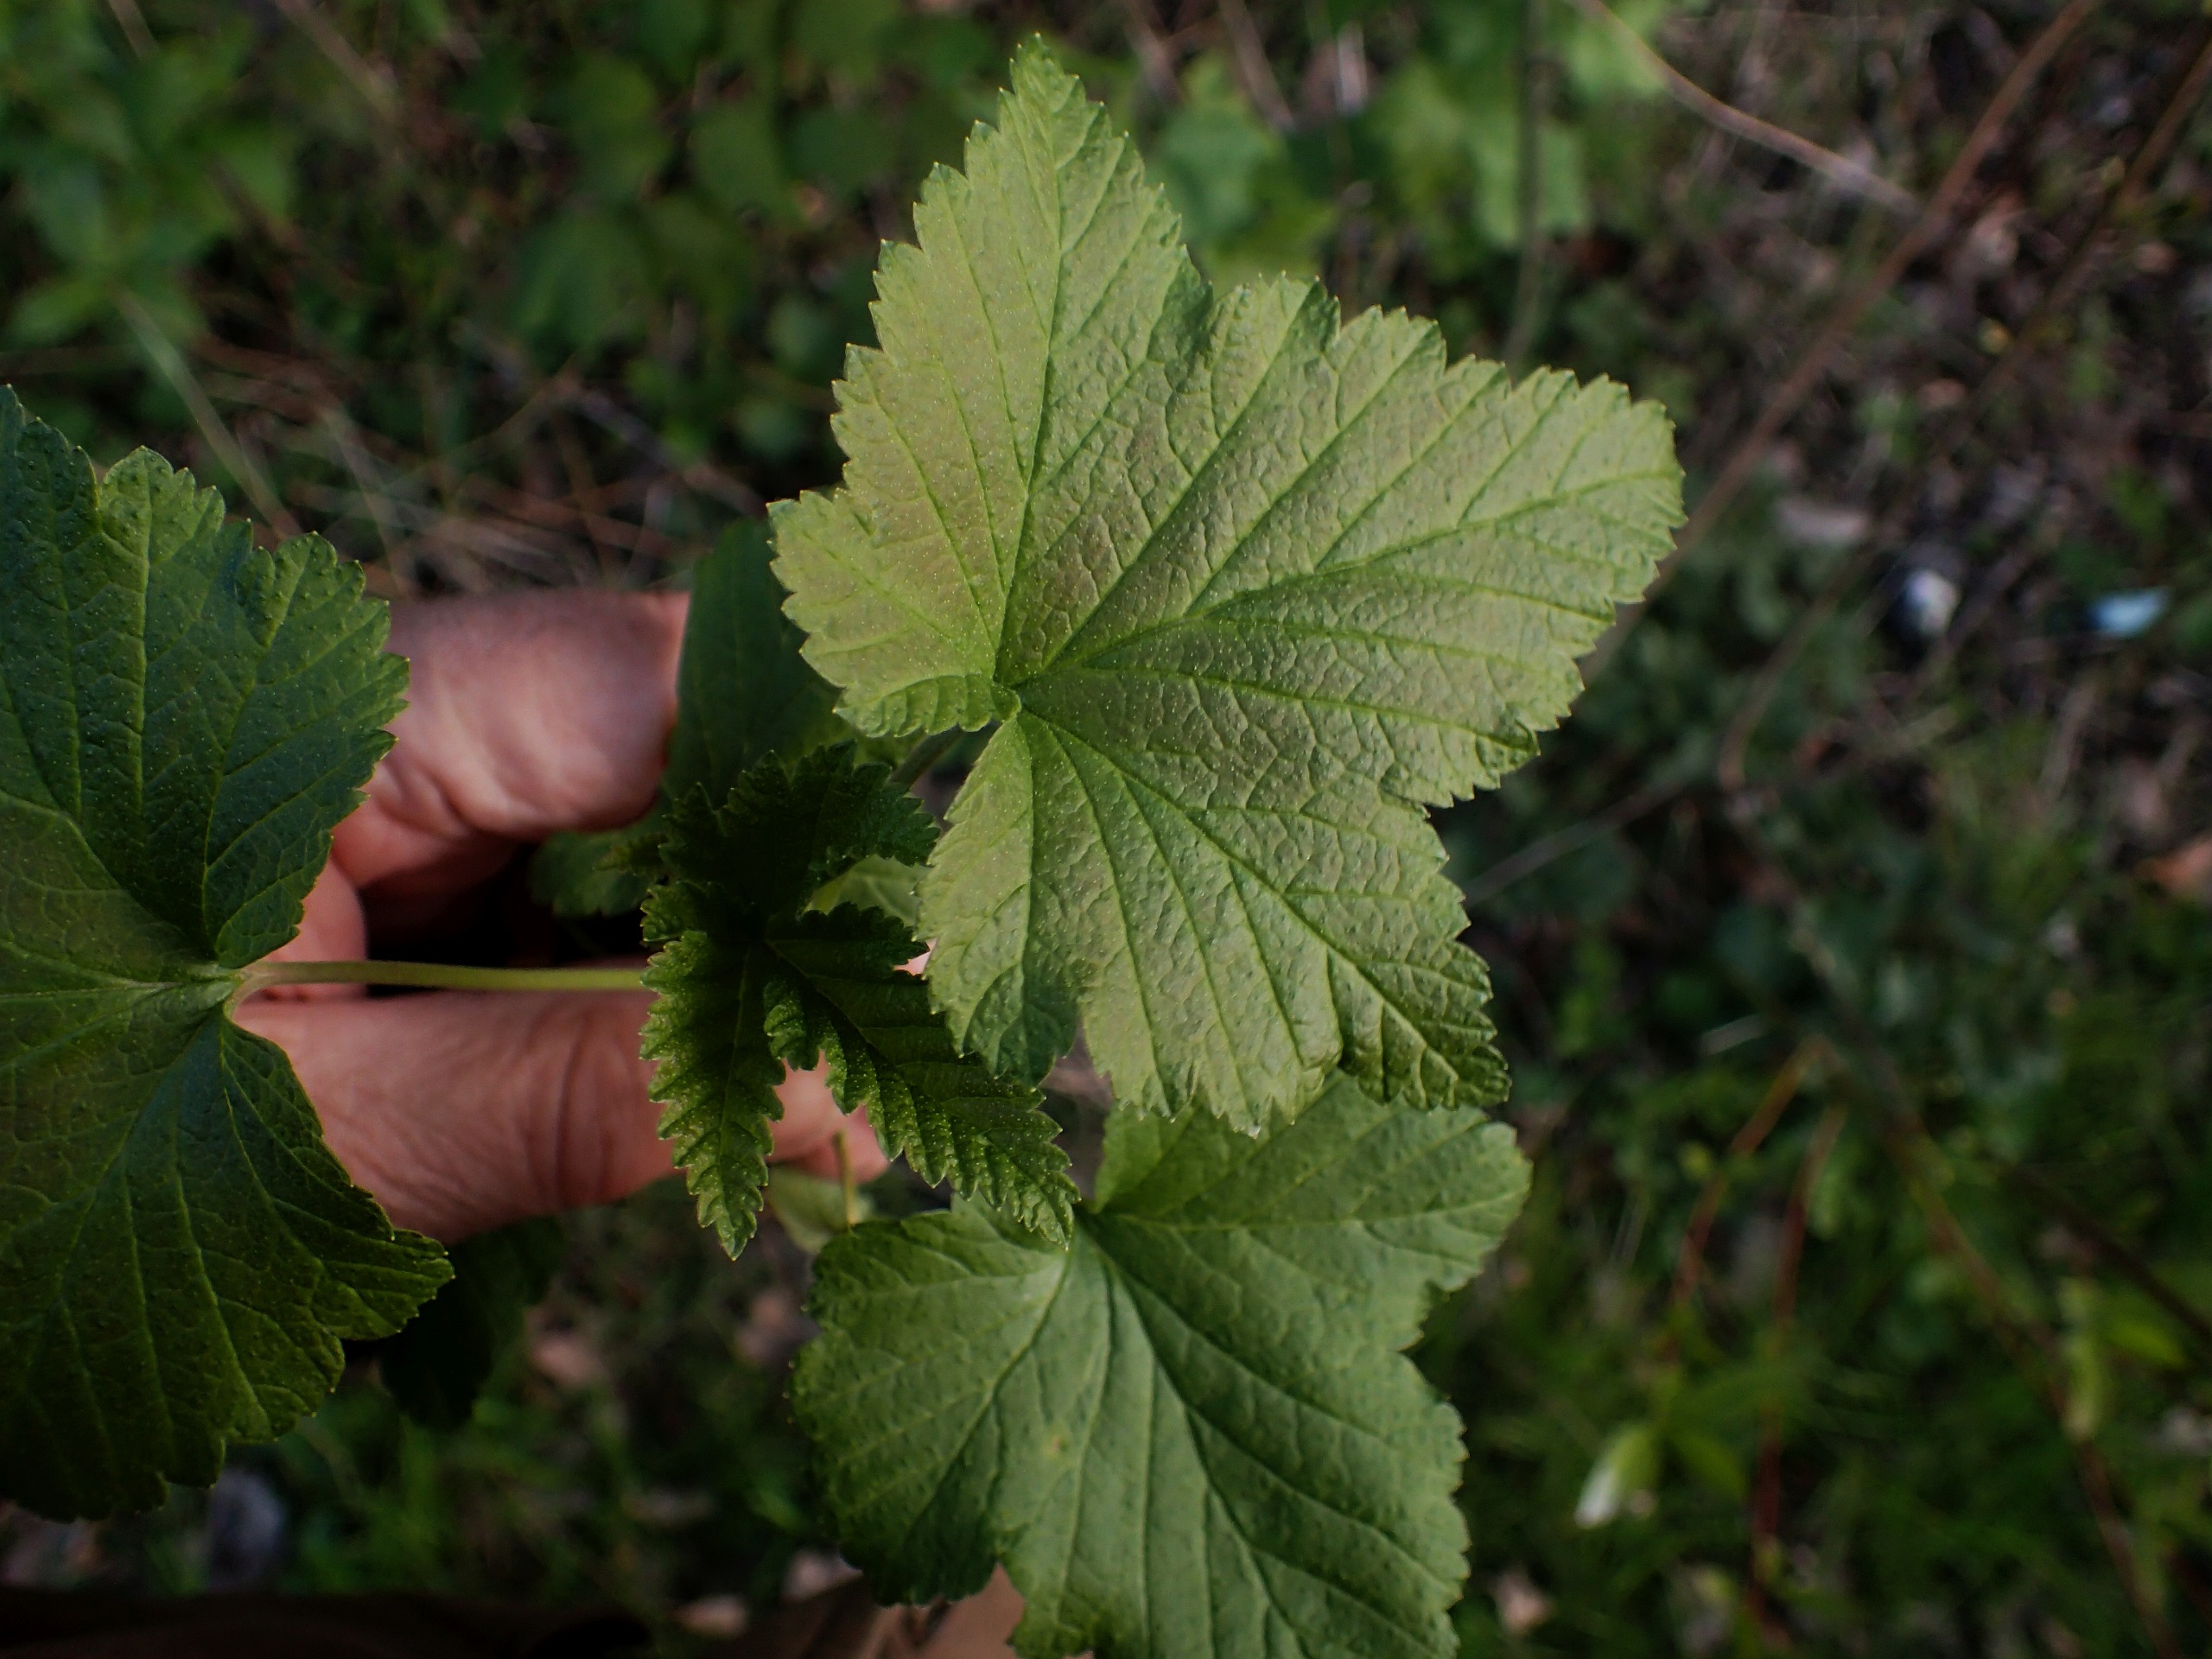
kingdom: Plantae
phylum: Tracheophyta
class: Magnoliopsida
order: Saxifragales
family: Grossulariaceae
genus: Ribes
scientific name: Ribes nigrum
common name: Solbær
